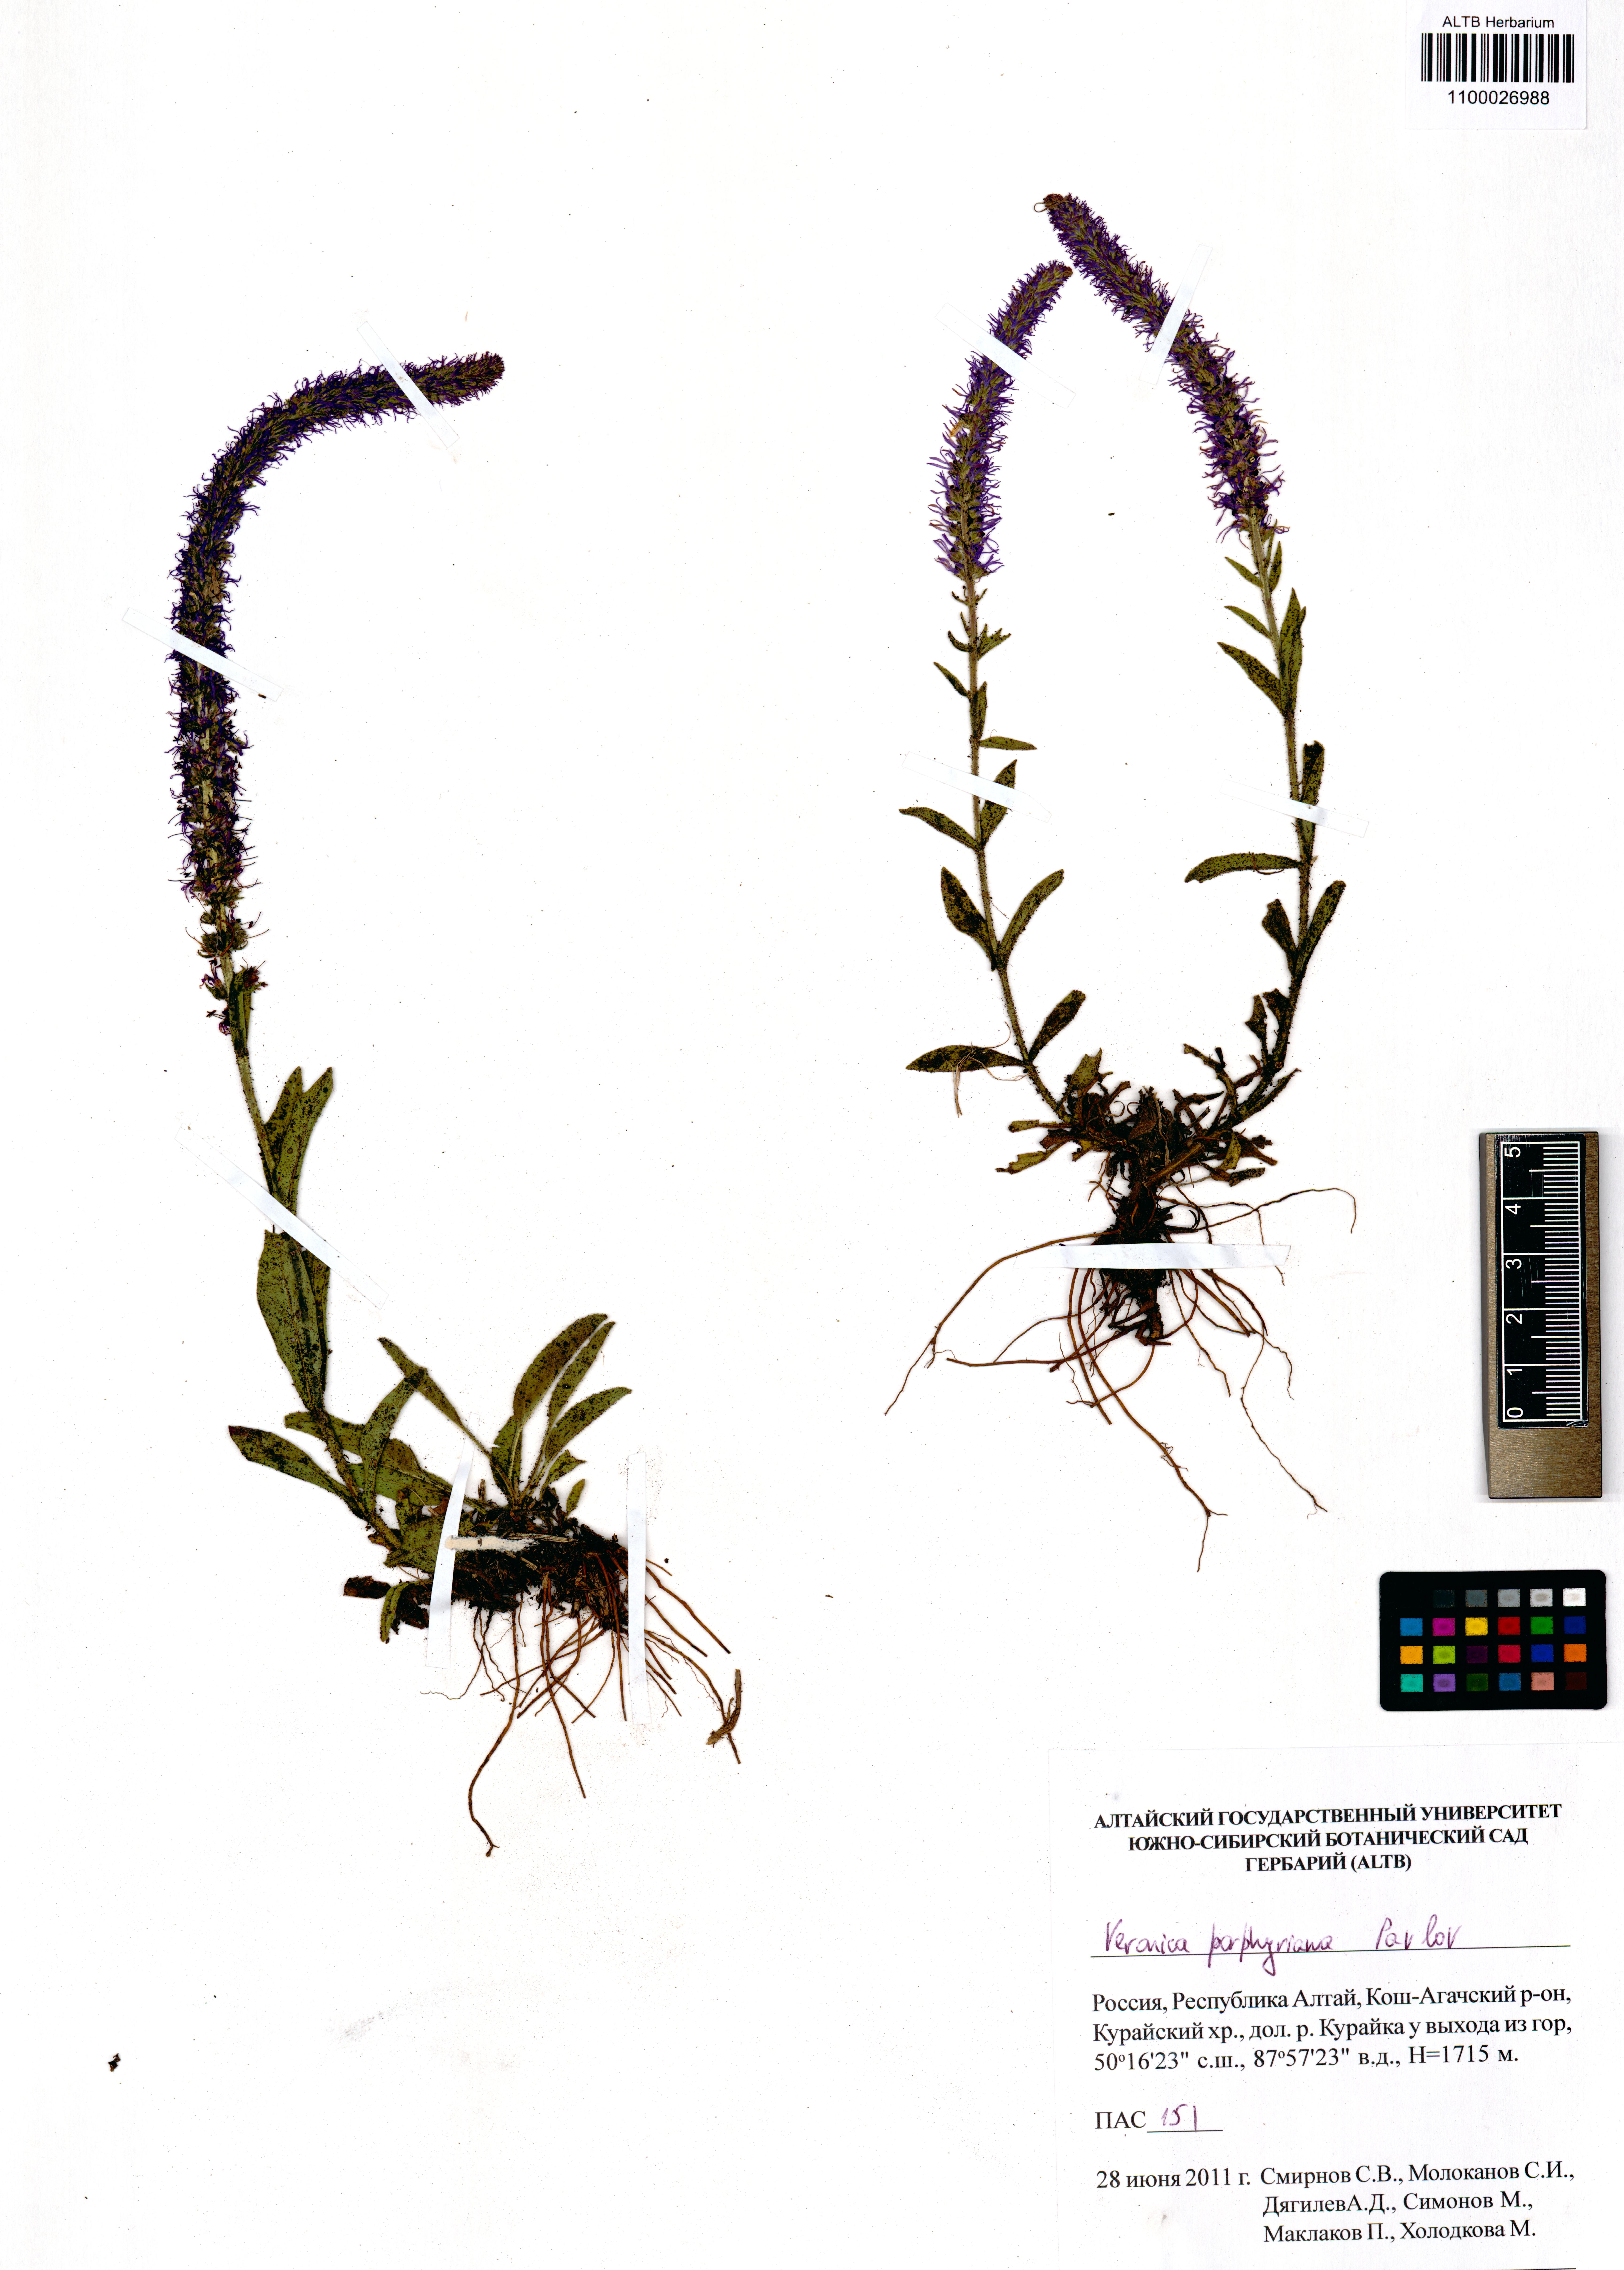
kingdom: Plantae
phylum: Tracheophyta
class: Magnoliopsida
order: Lamiales
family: Plantaginaceae
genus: Veronica
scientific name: Veronica porphyriana
